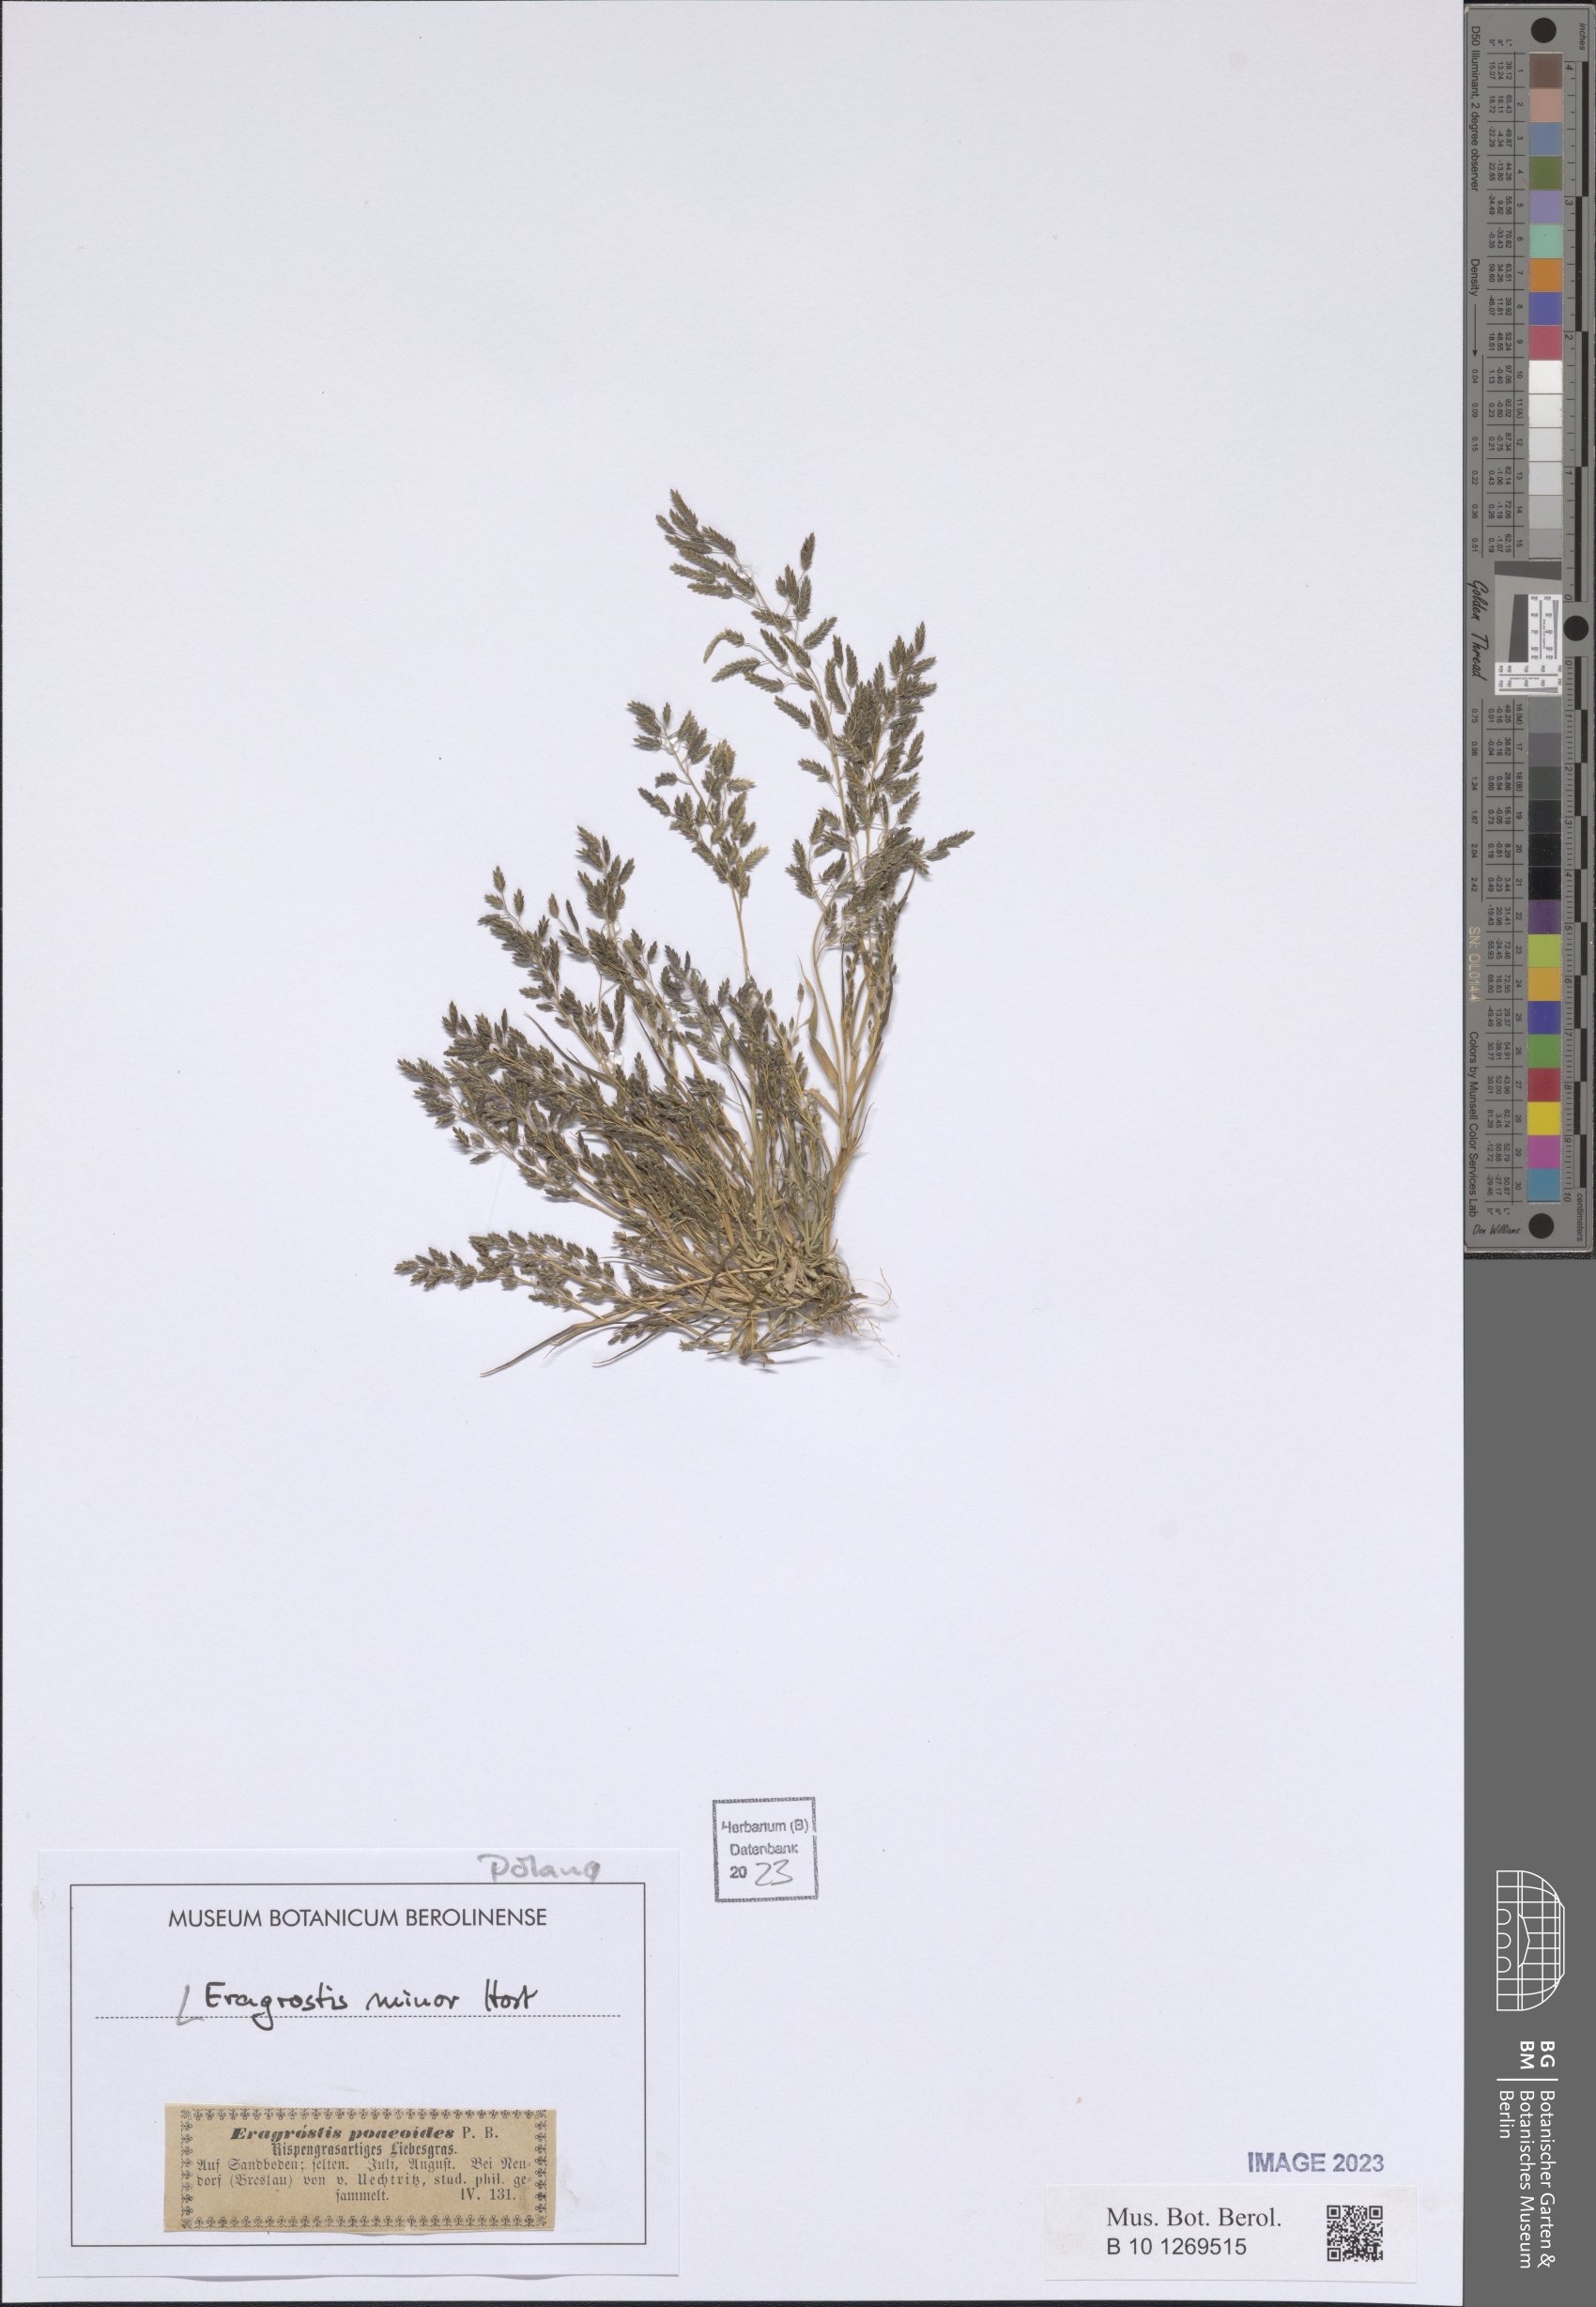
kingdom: Plantae
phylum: Tracheophyta
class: Liliopsida
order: Poales
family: Poaceae
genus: Eragrostis
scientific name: Eragrostis minor
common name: Small love-grass
